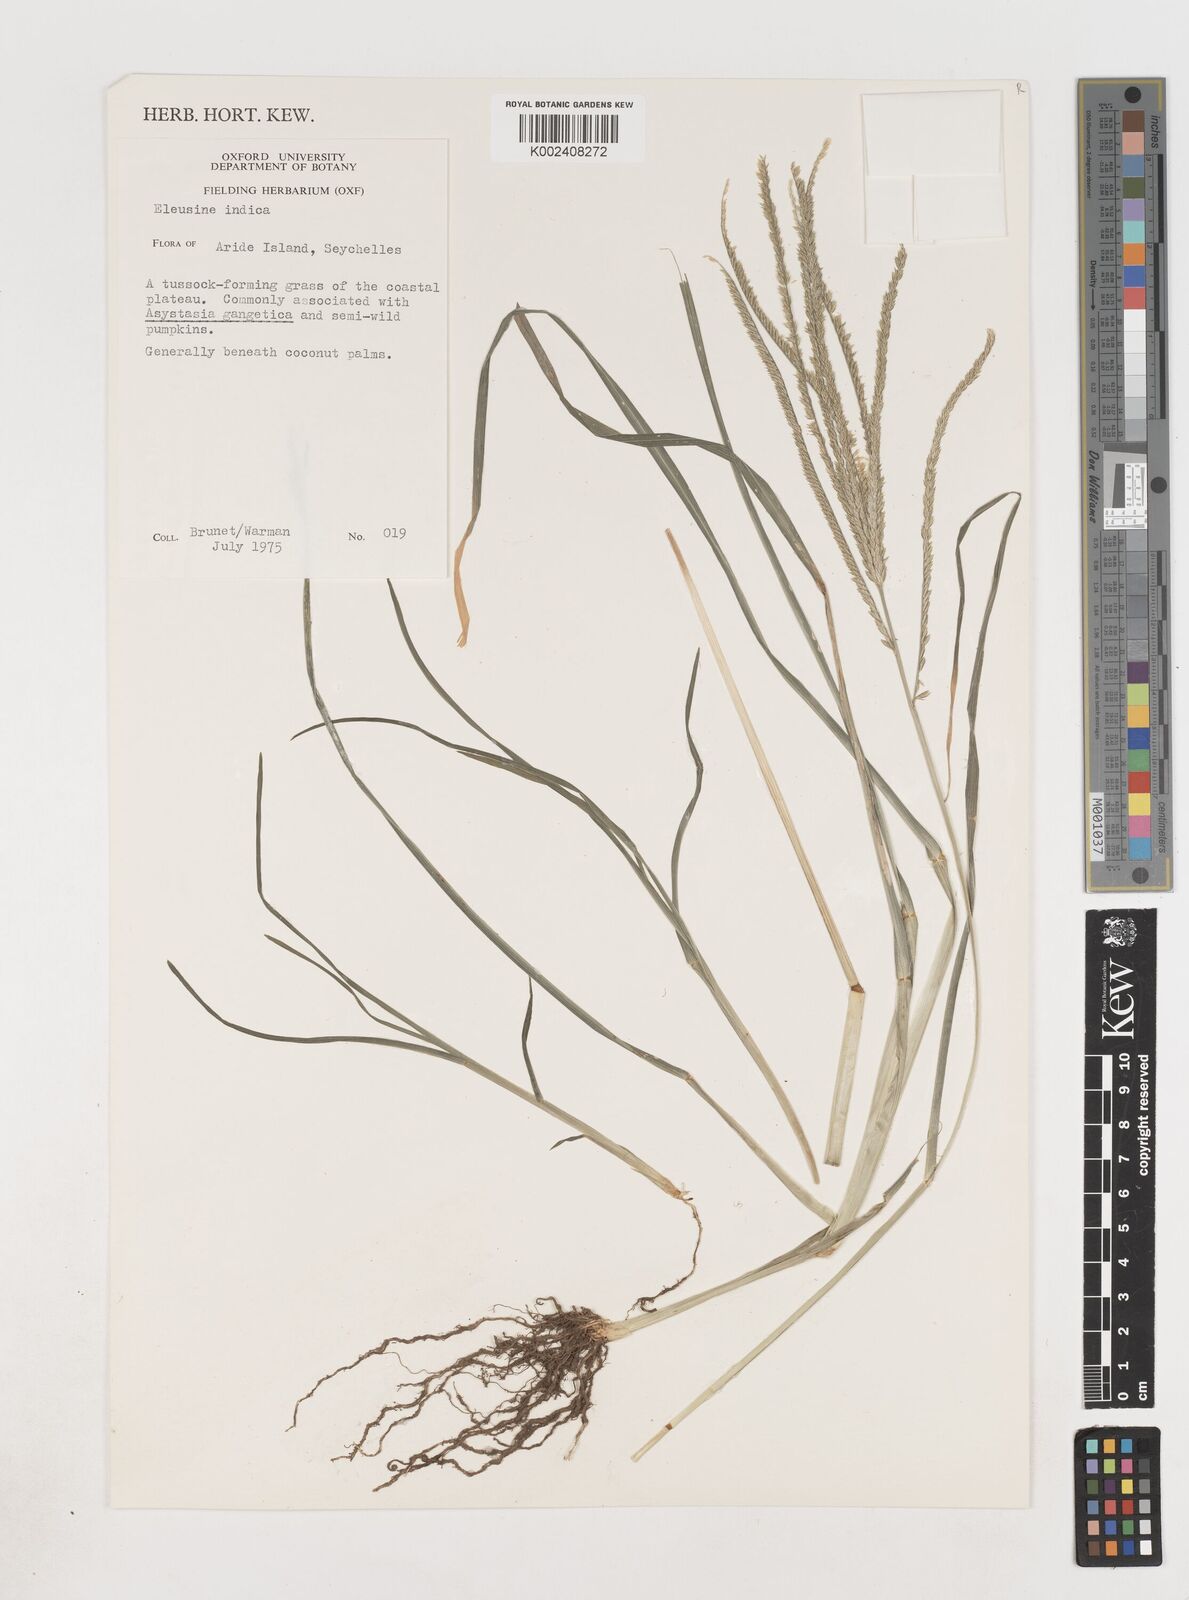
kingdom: Plantae
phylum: Tracheophyta
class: Liliopsida
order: Poales
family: Poaceae
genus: Eleusine
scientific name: Eleusine indica
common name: Yard-grass
